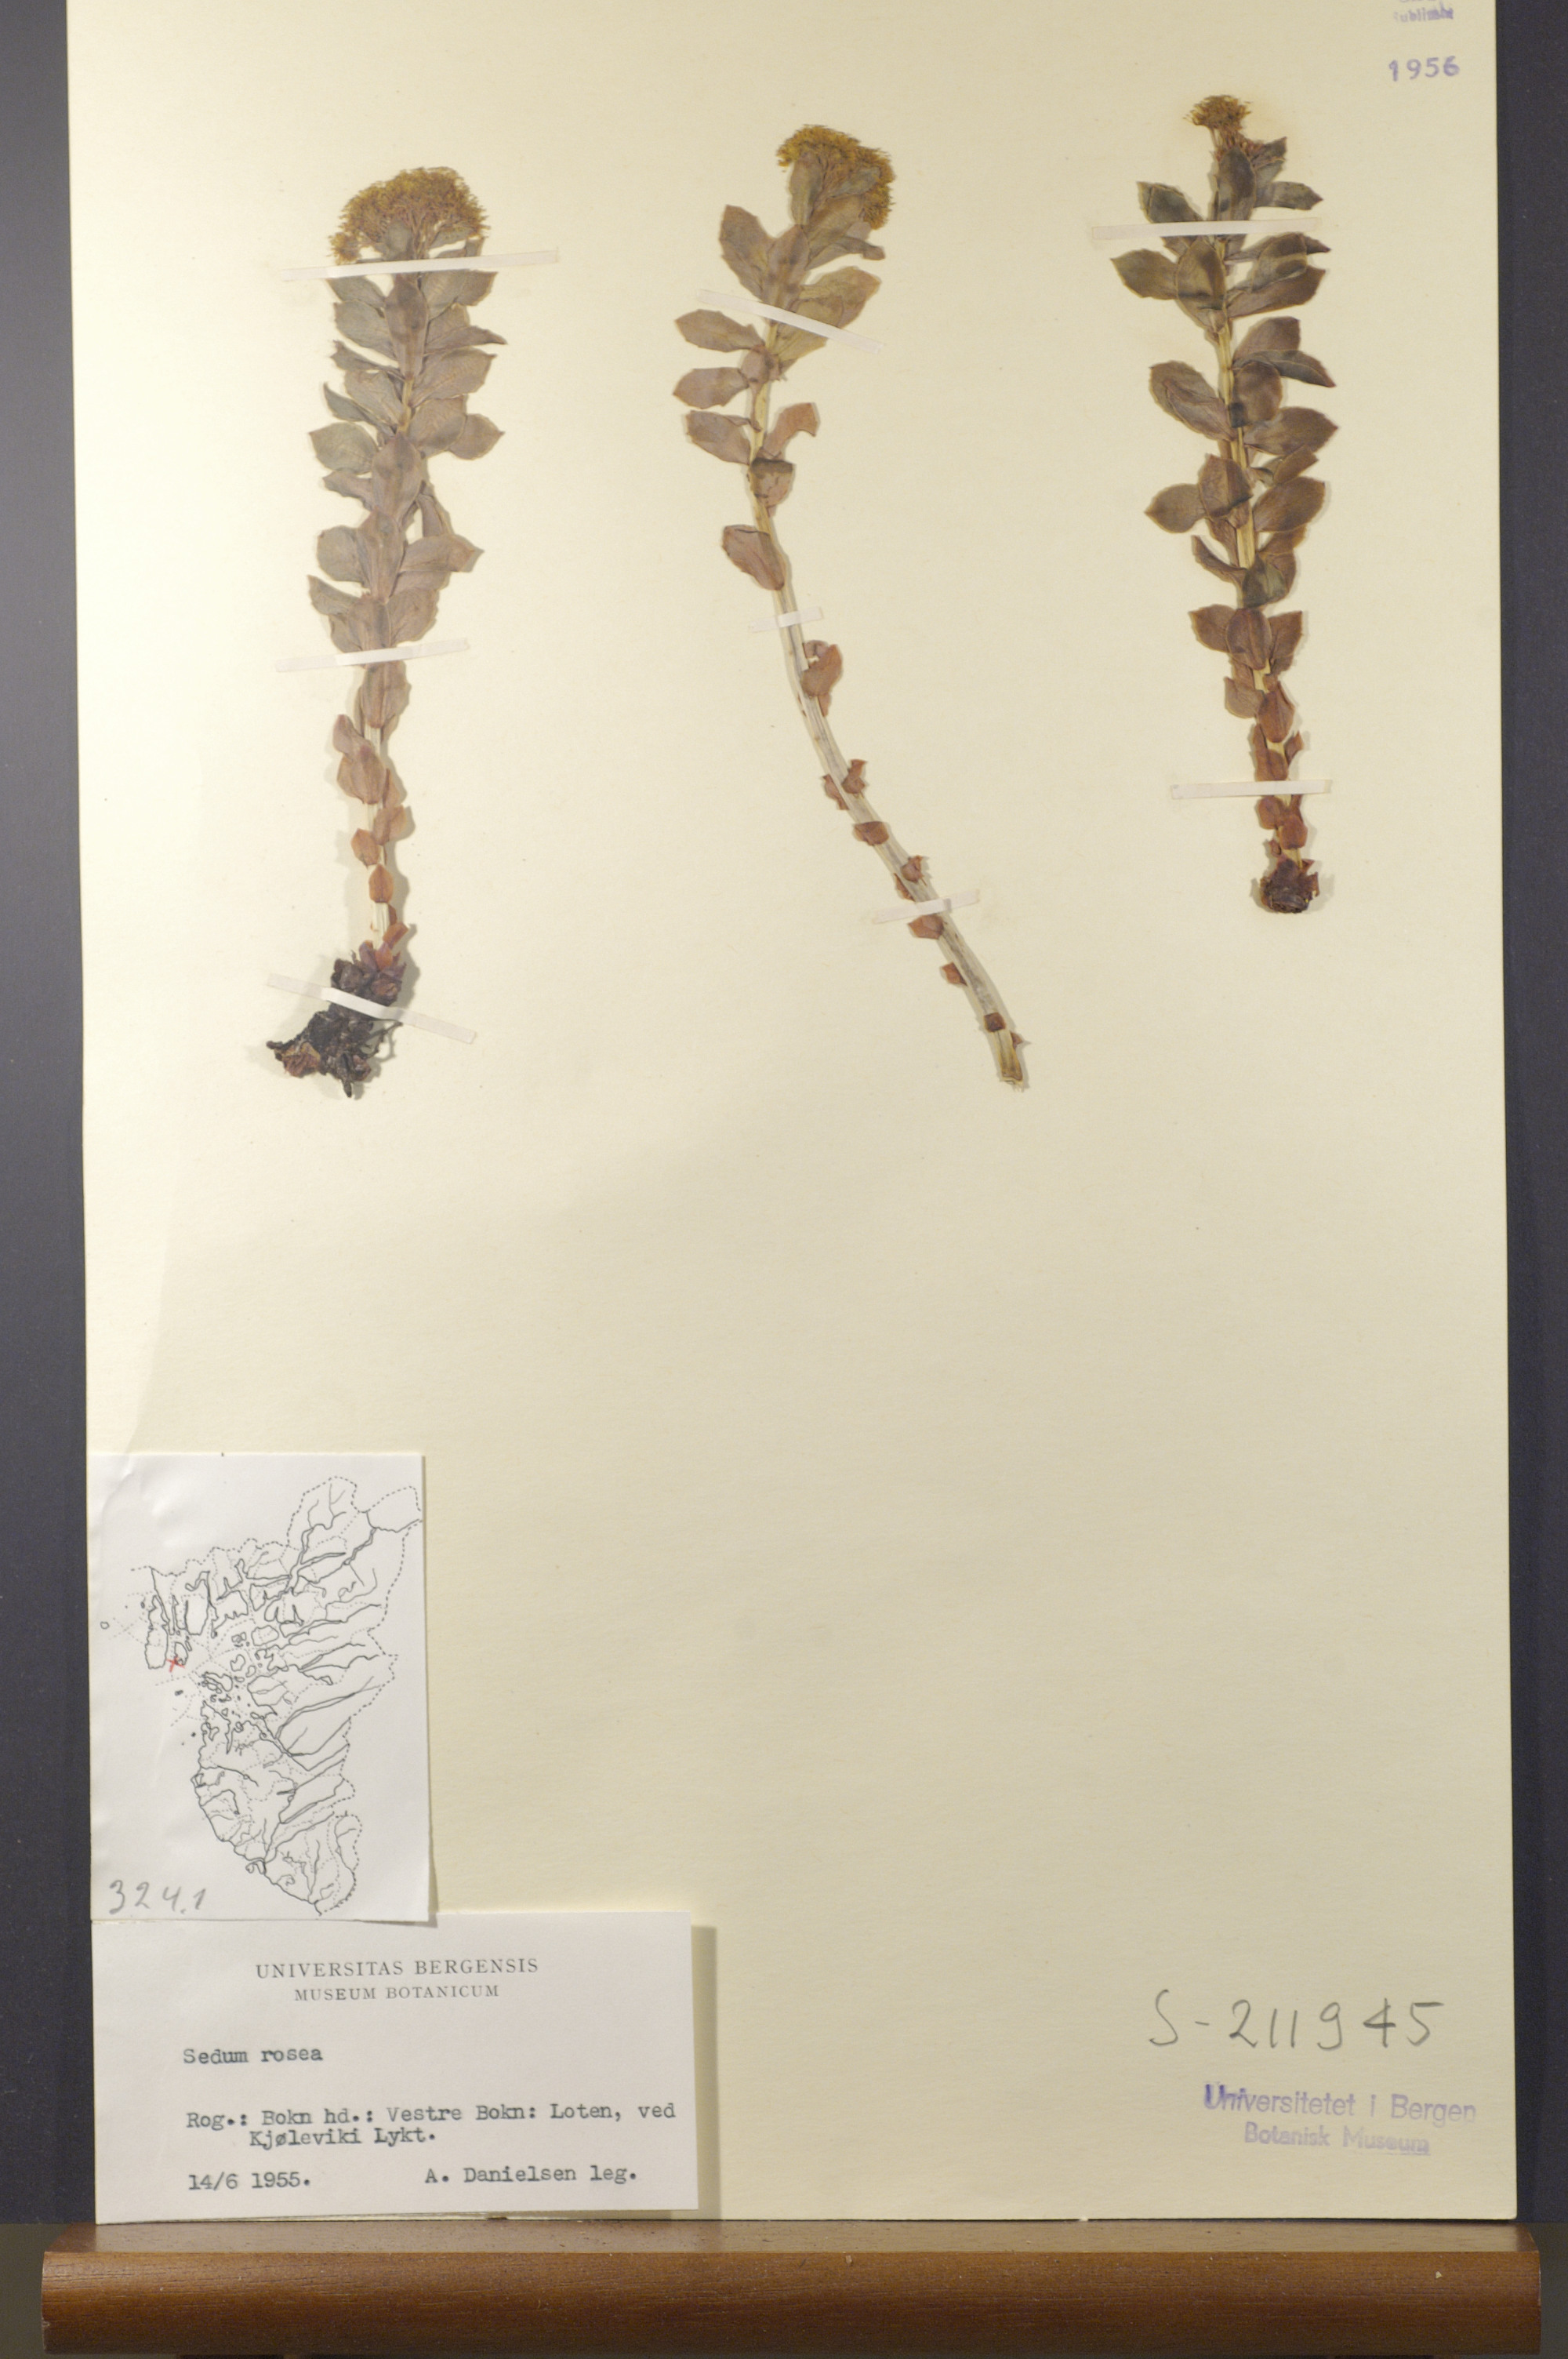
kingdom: Plantae
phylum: Tracheophyta
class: Magnoliopsida
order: Saxifragales
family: Crassulaceae
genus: Rhodiola
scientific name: Rhodiola rosea
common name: Roseroot
